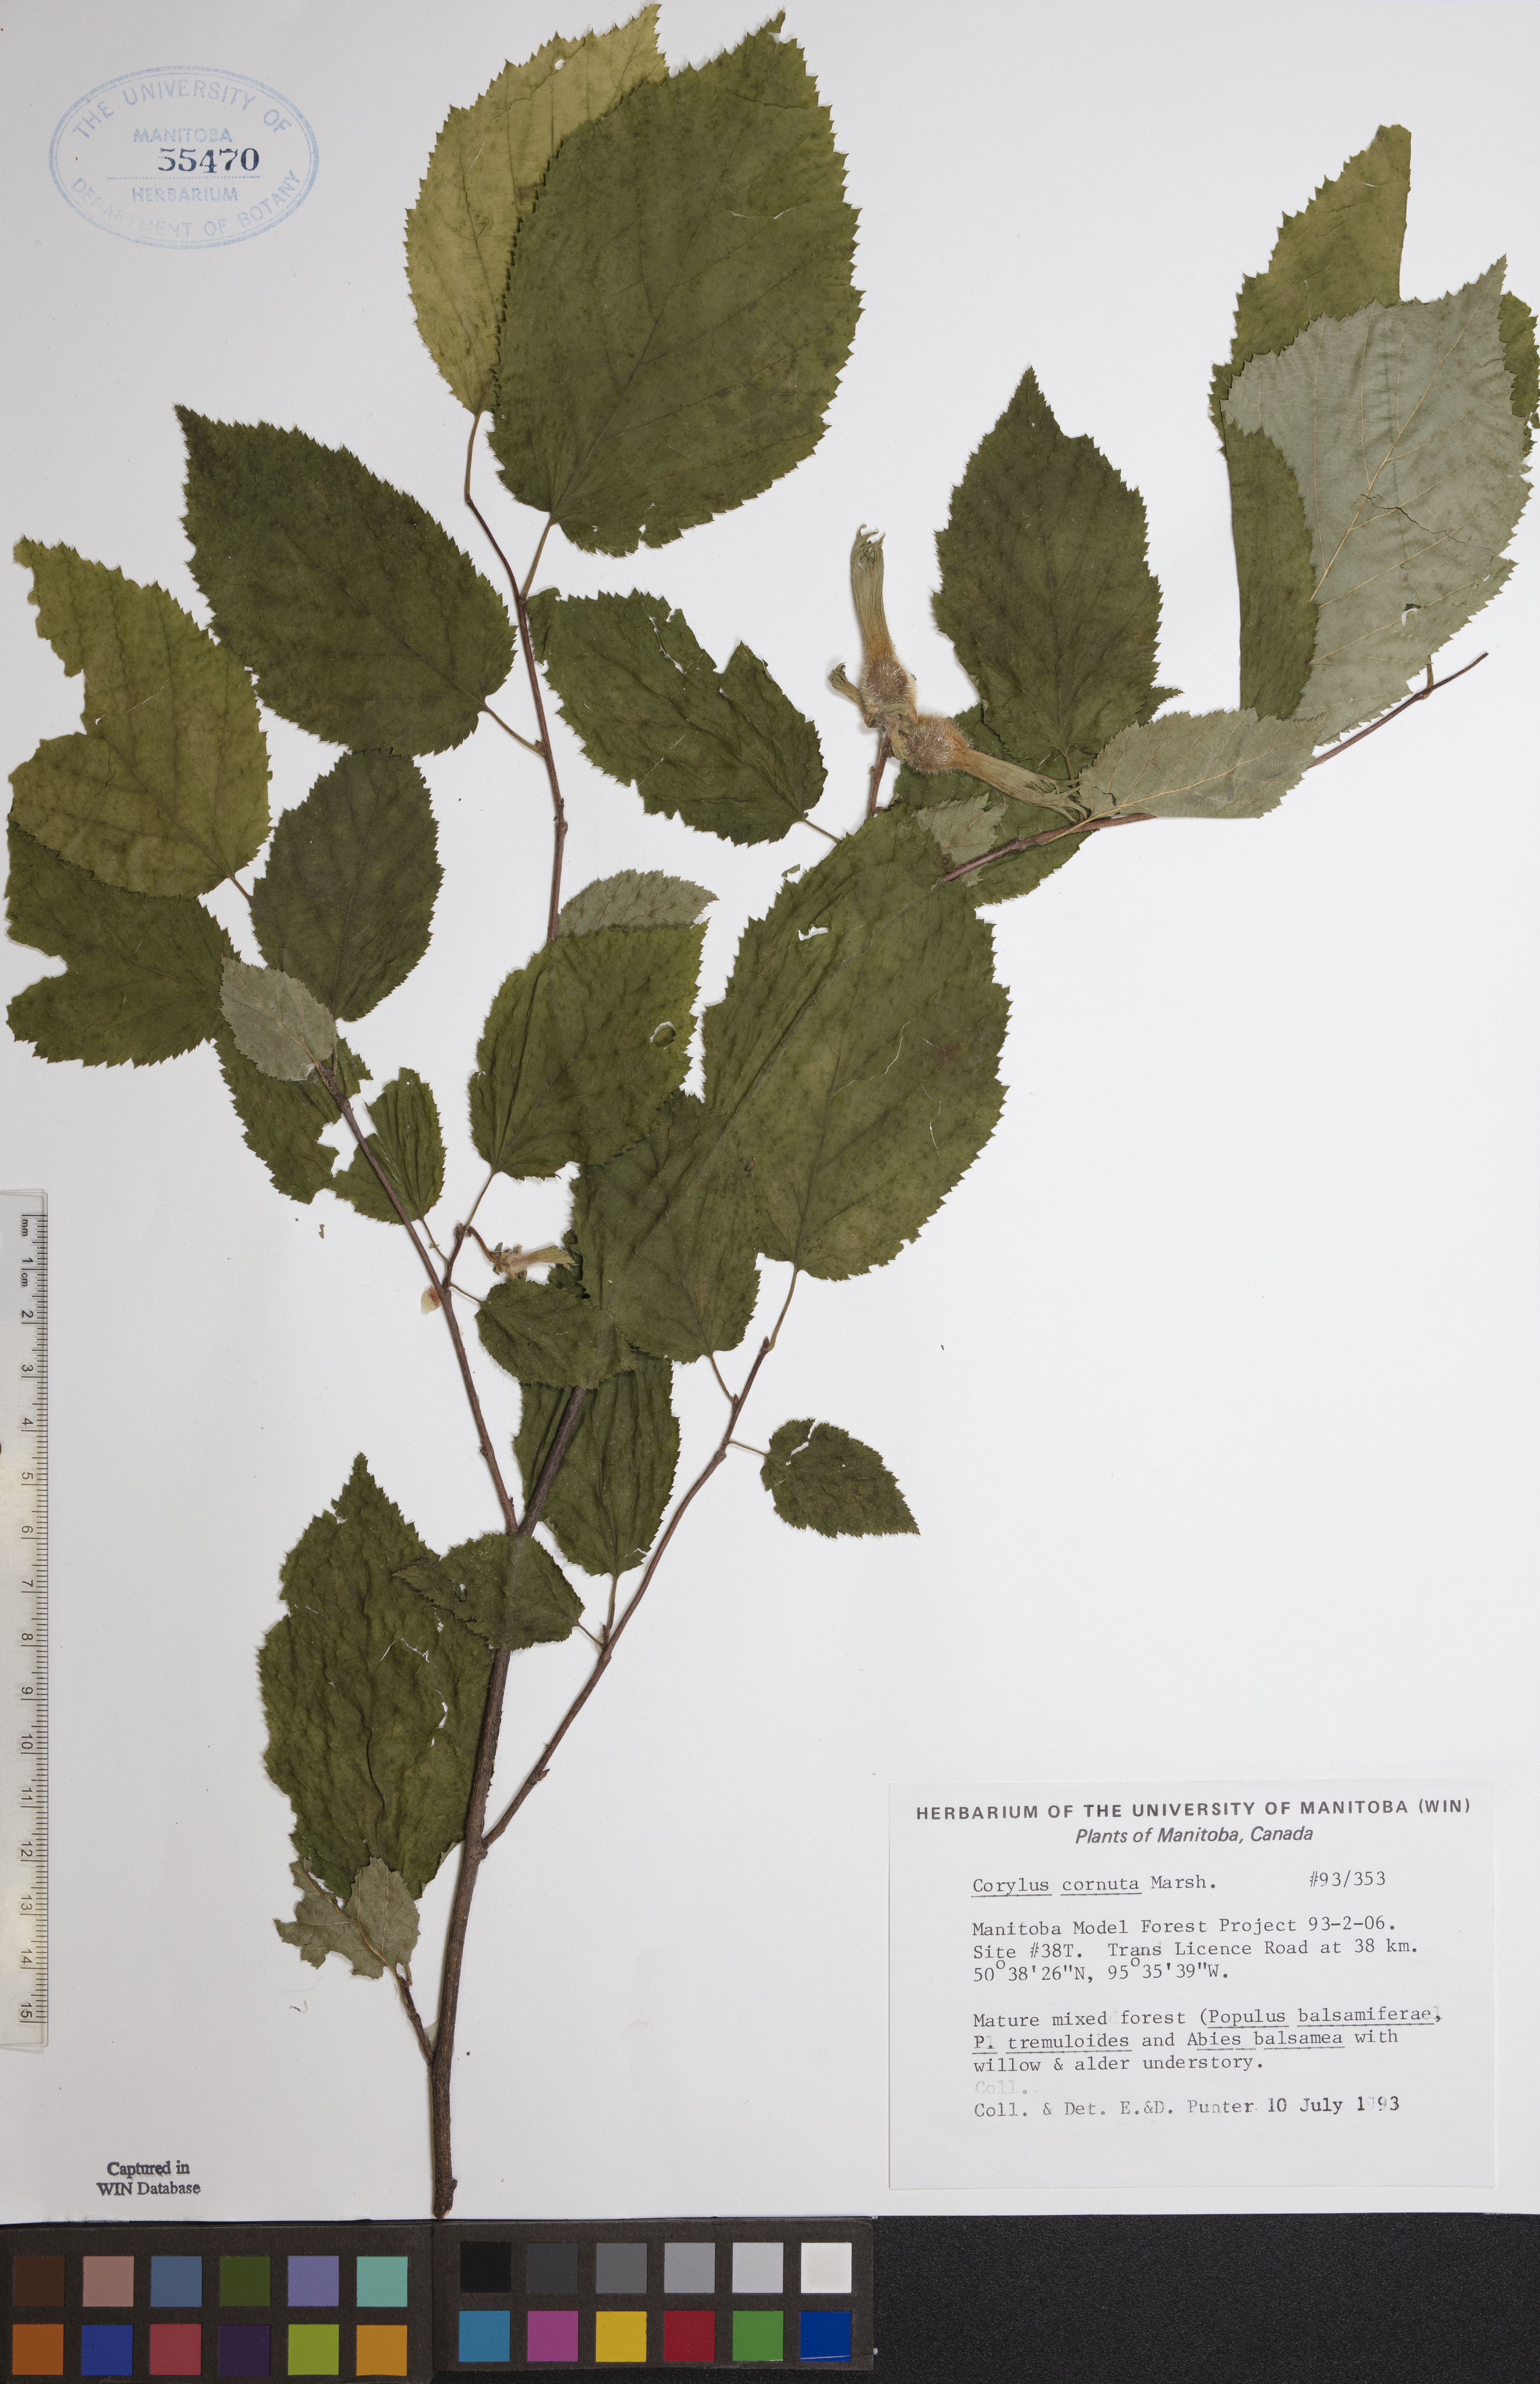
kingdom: Plantae
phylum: Tracheophyta
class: Magnoliopsida
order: Fagales
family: Betulaceae
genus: Corylus
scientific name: Corylus cornuta
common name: Beaked hazel
